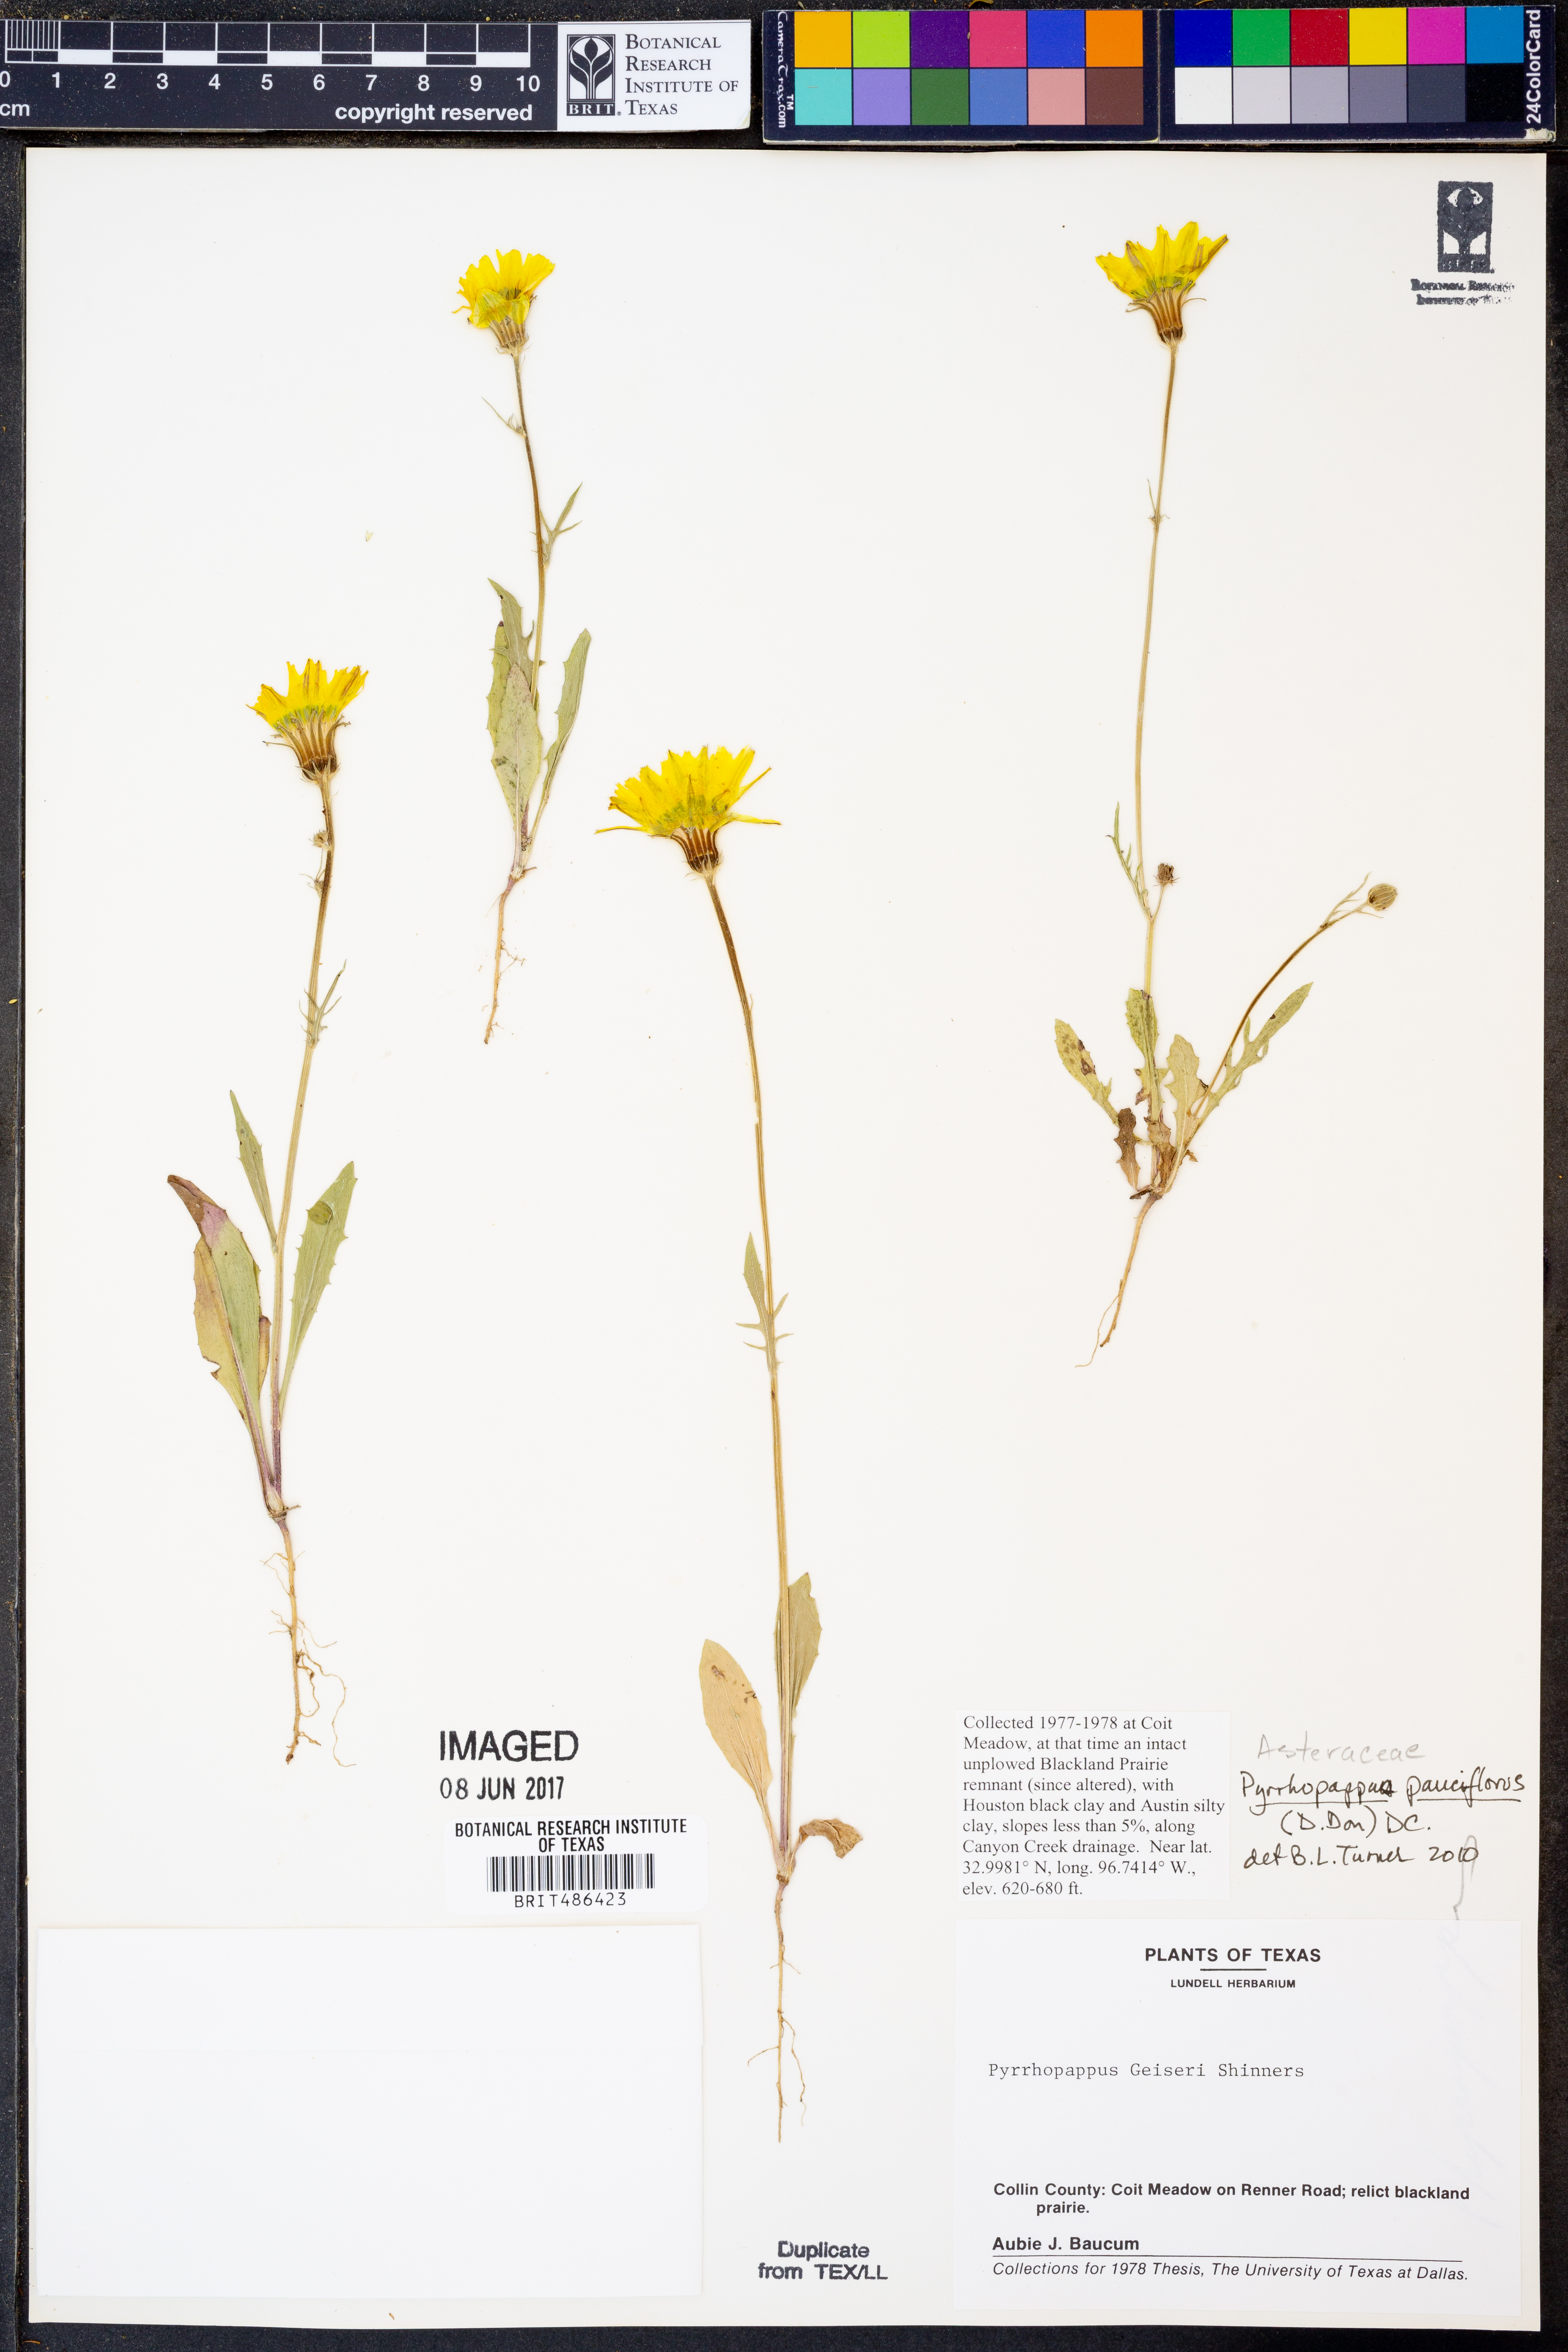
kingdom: Plantae
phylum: Tracheophyta
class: Magnoliopsida
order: Asterales
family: Asteraceae
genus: Pyrrhopappus
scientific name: Pyrrhopappus pauciflorus
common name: Texas false dandelion
